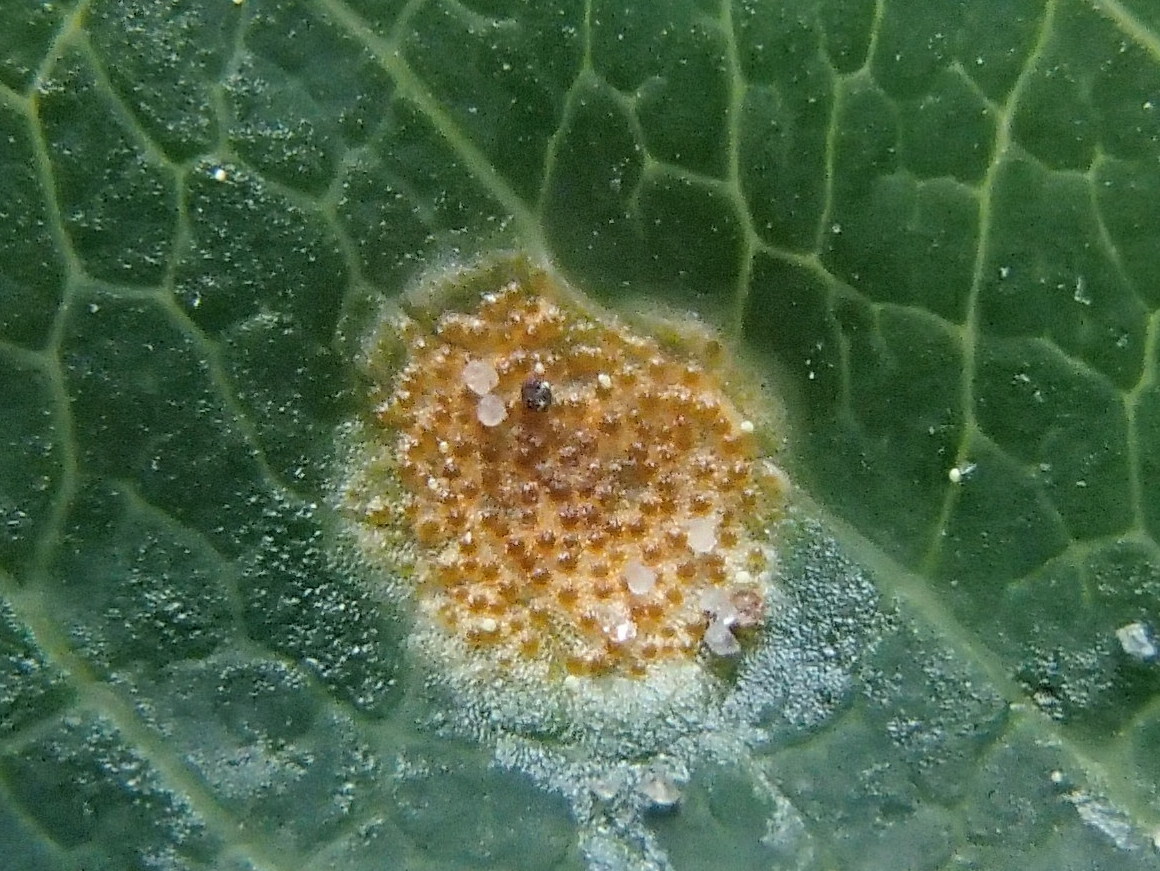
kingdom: Fungi
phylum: Basidiomycota
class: Pucciniomycetes
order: Pucciniales
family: Pucciniaceae
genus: Puccinia
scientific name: Puccinia festucae
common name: gedeblad-tvecellerust
